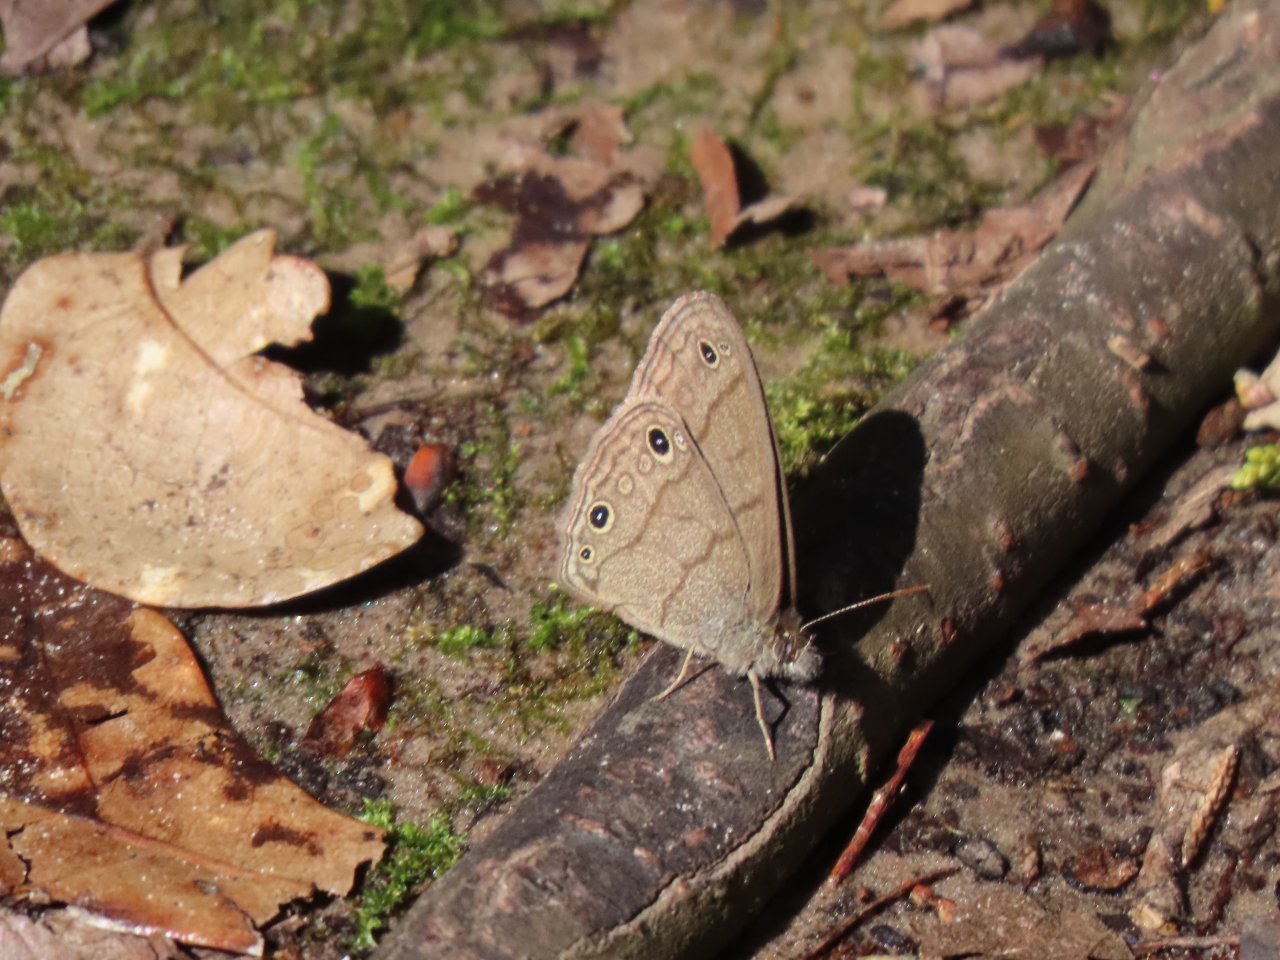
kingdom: Animalia
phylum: Arthropoda
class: Insecta
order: Lepidoptera
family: Nymphalidae
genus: Hermeuptychia
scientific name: Hermeuptychia hermes
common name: Carolina Satyr
